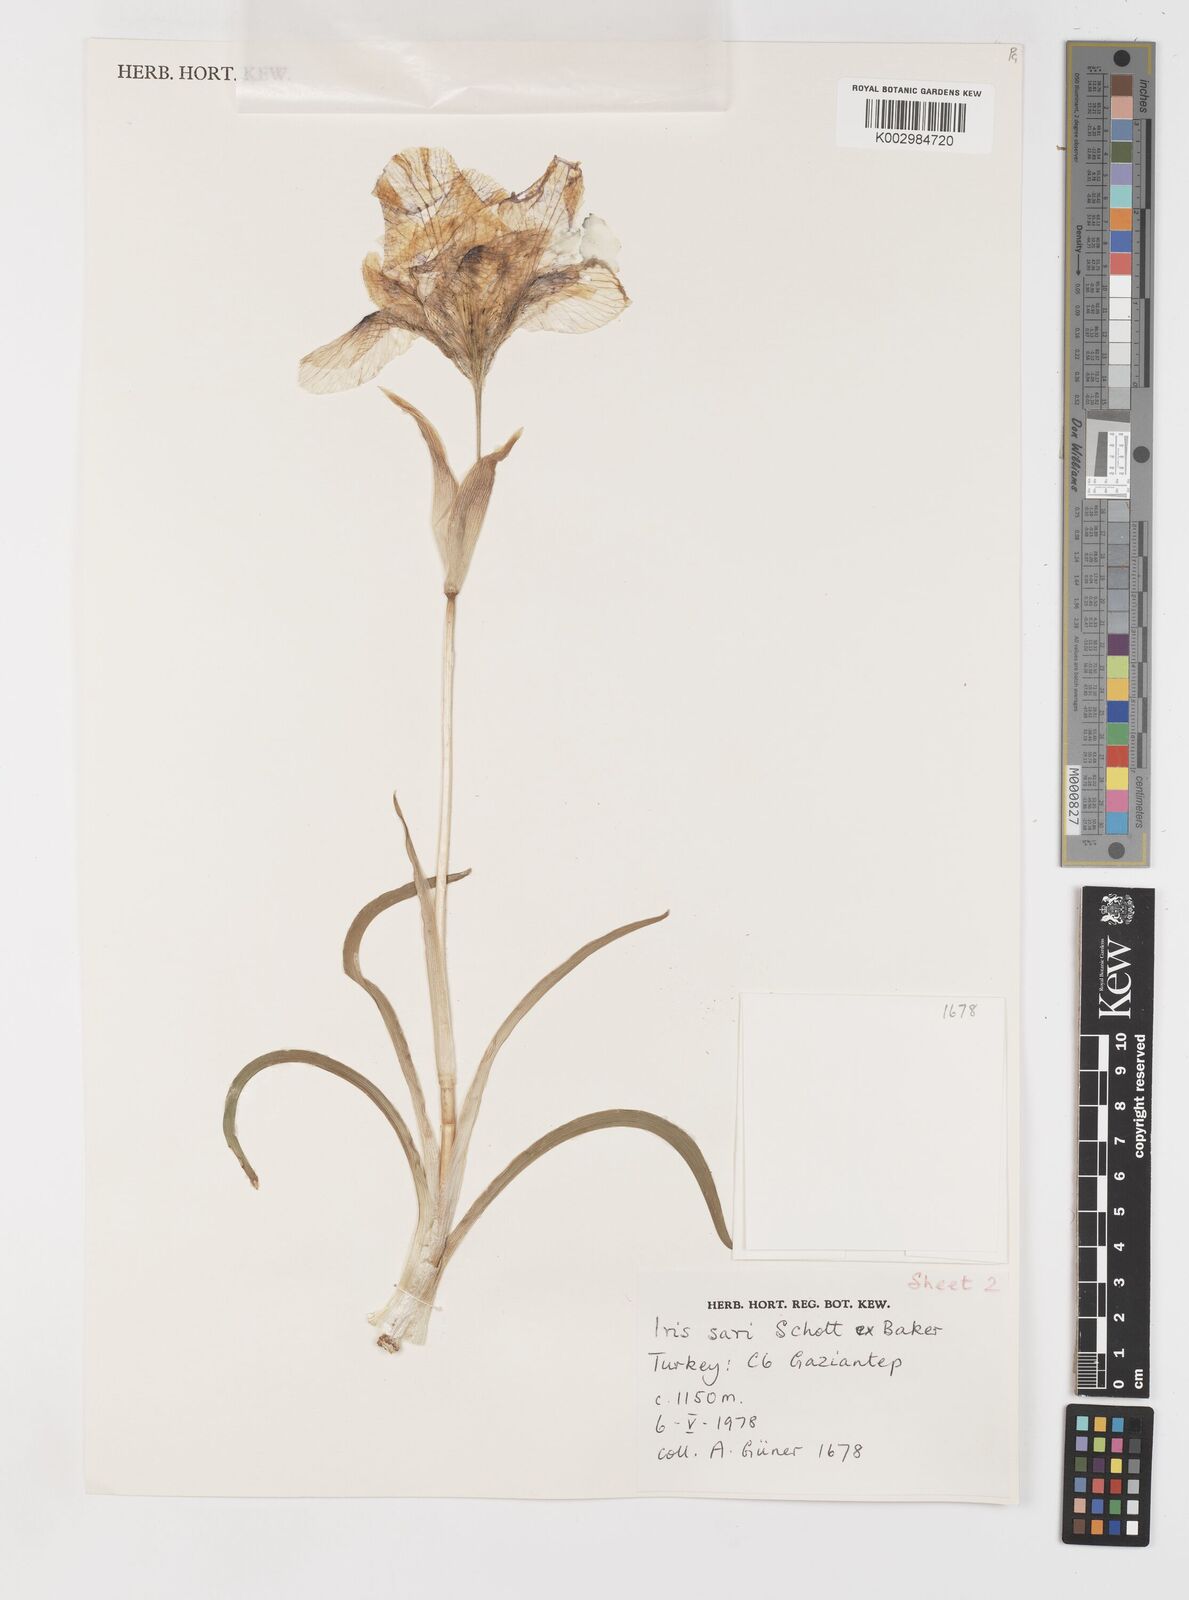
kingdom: Plantae
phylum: Tracheophyta
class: Liliopsida
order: Asparagales
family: Iridaceae
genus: Iris
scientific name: Iris sari
